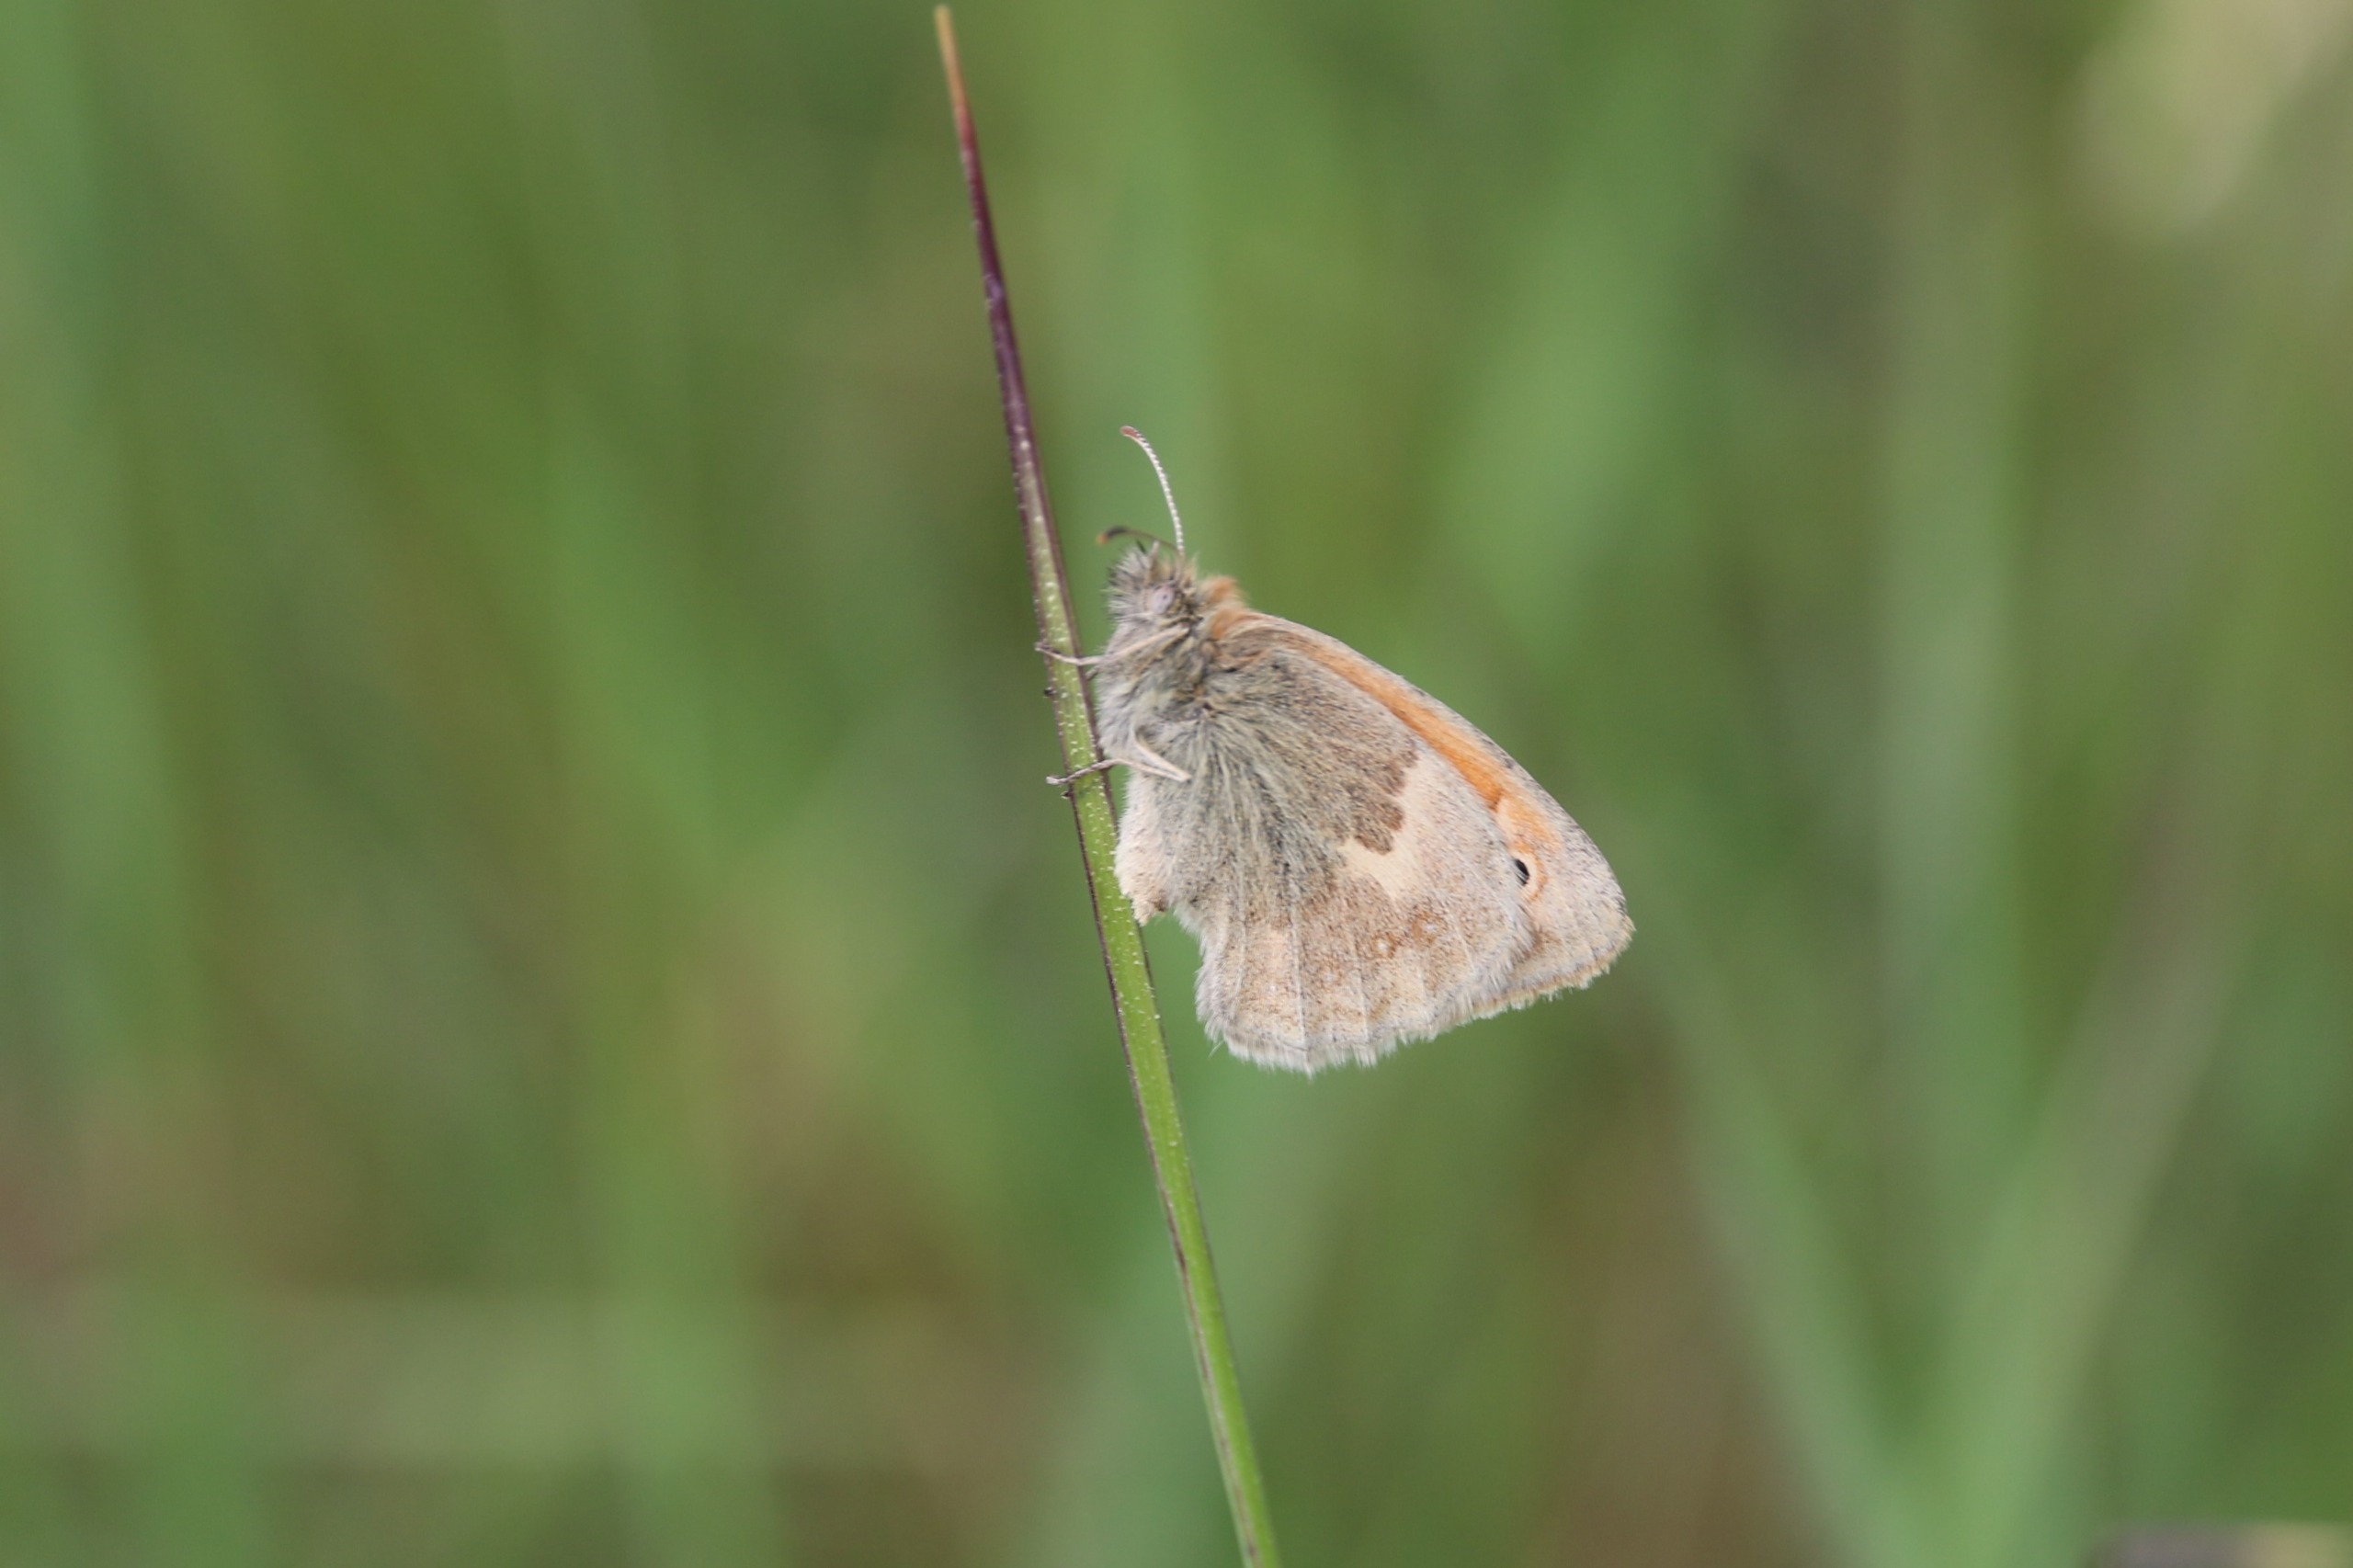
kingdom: Animalia
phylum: Arthropoda
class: Insecta
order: Lepidoptera
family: Nymphalidae
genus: Coenonympha
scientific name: Coenonympha pamphilus
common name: Okkergul randøje
